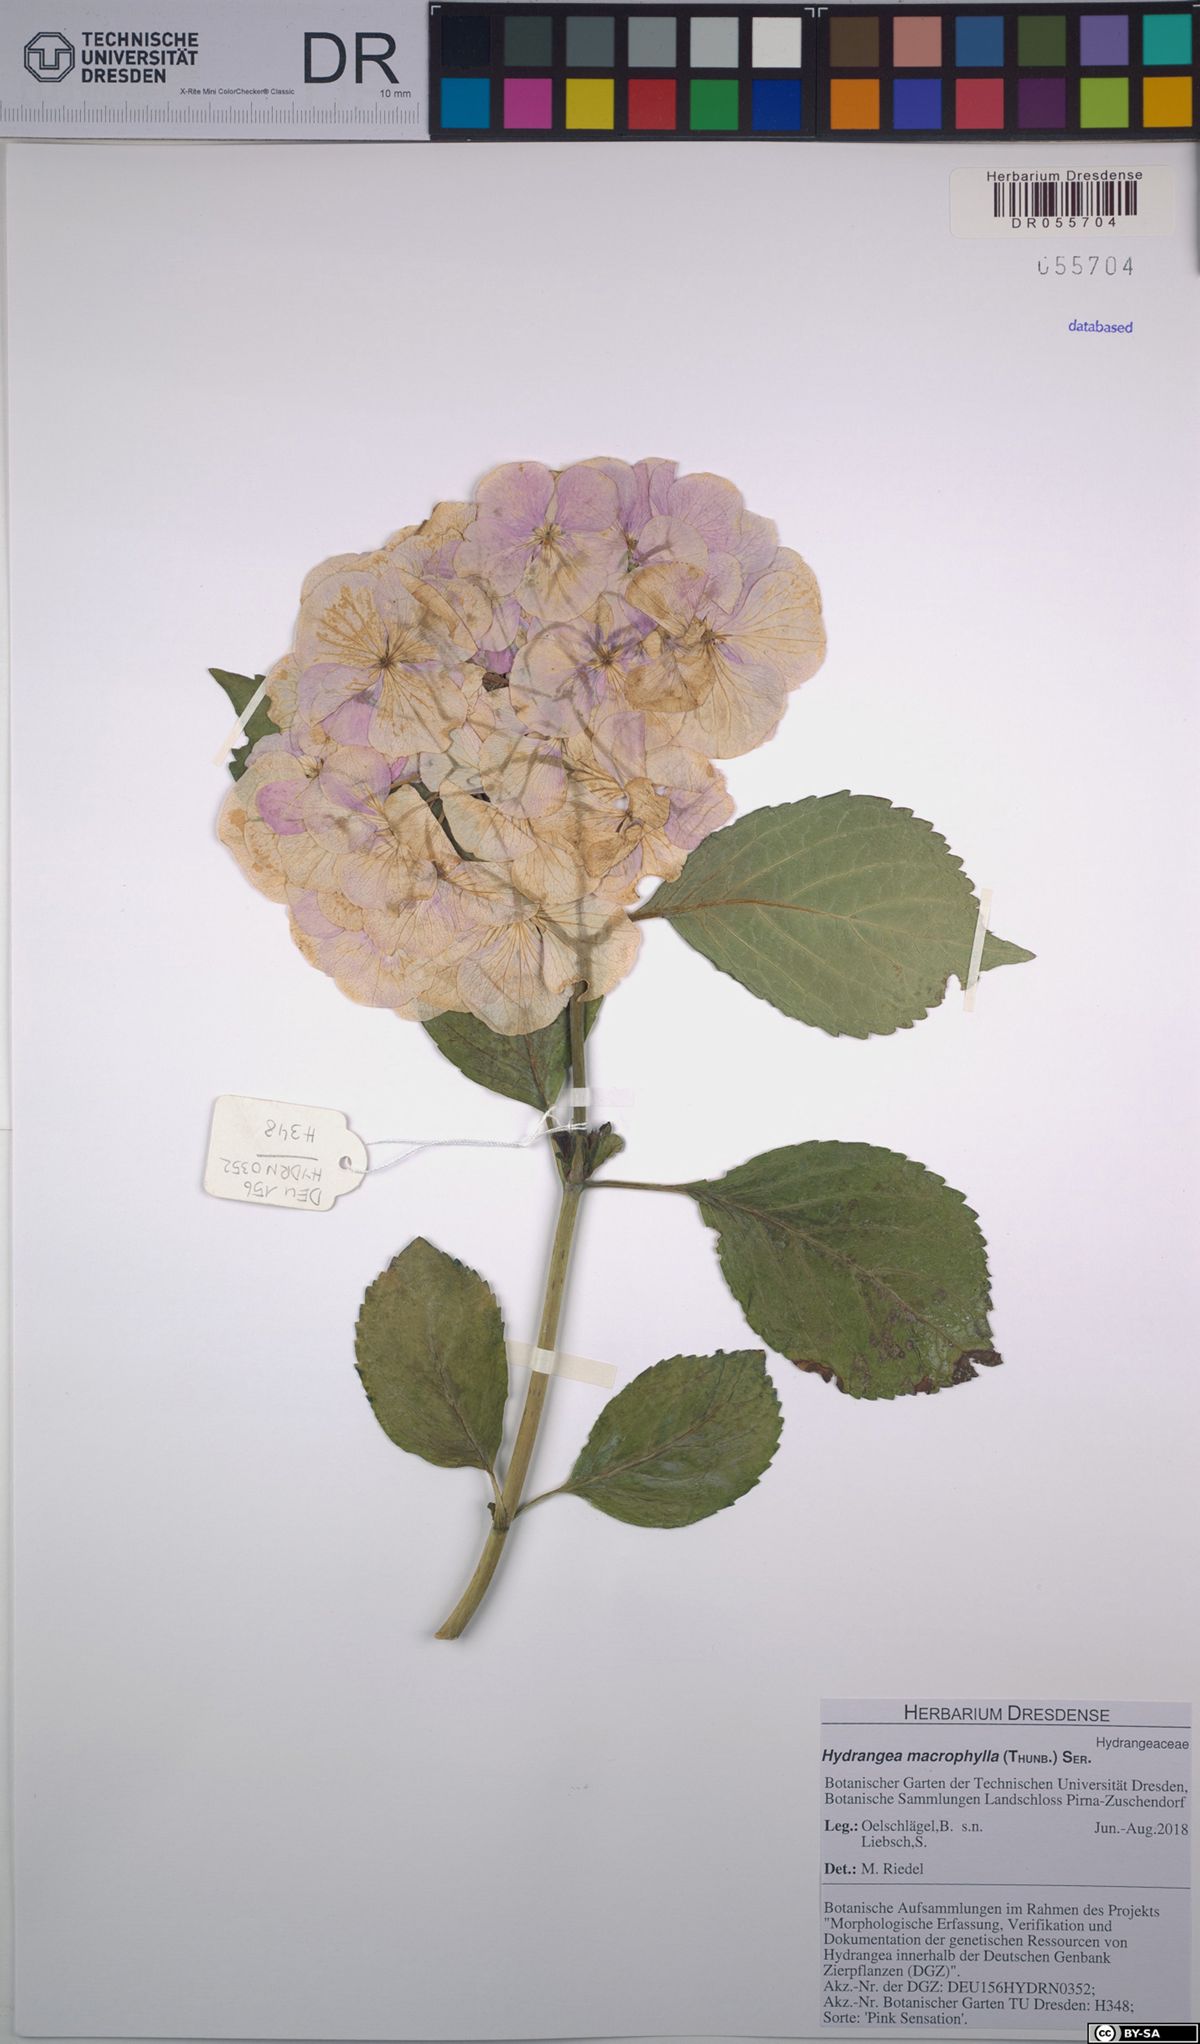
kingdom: Plantae
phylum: Tracheophyta
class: Magnoliopsida
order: Cornales
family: Hydrangeaceae
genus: Hydrangea
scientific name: Hydrangea macrophylla
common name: Hydrangea
